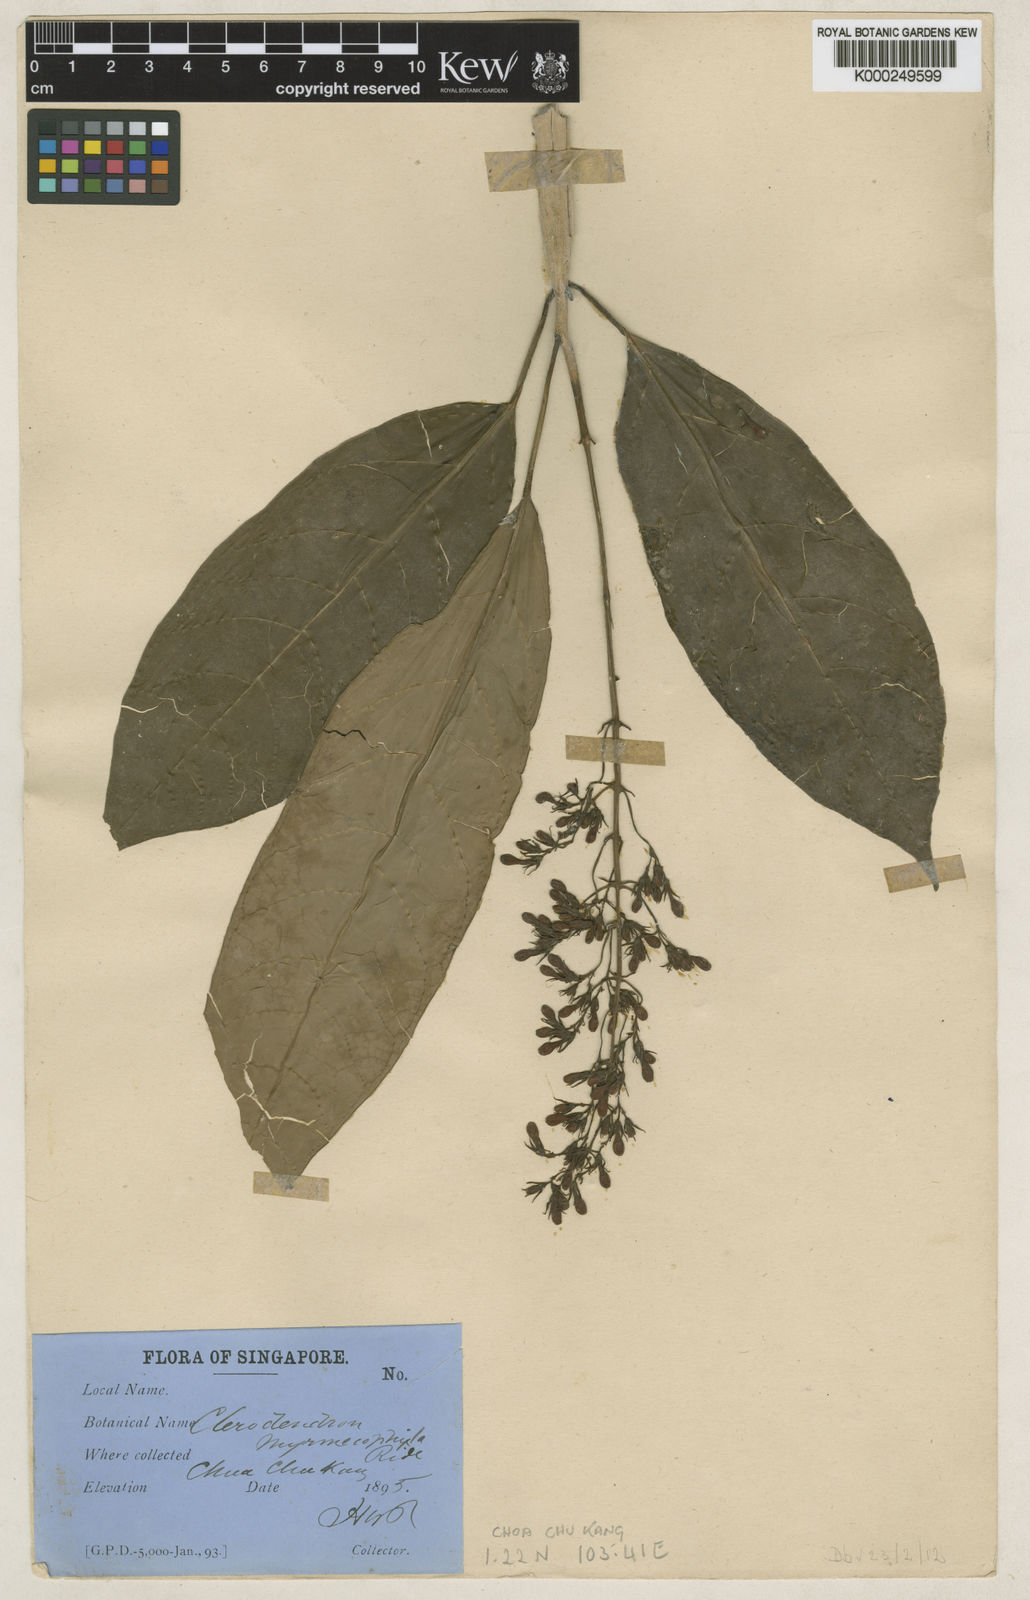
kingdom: Plantae
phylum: Tracheophyta
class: Magnoliopsida
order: Lamiales
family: Lamiaceae
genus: Clerodendrum
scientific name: Clerodendrum myrmecophilum
